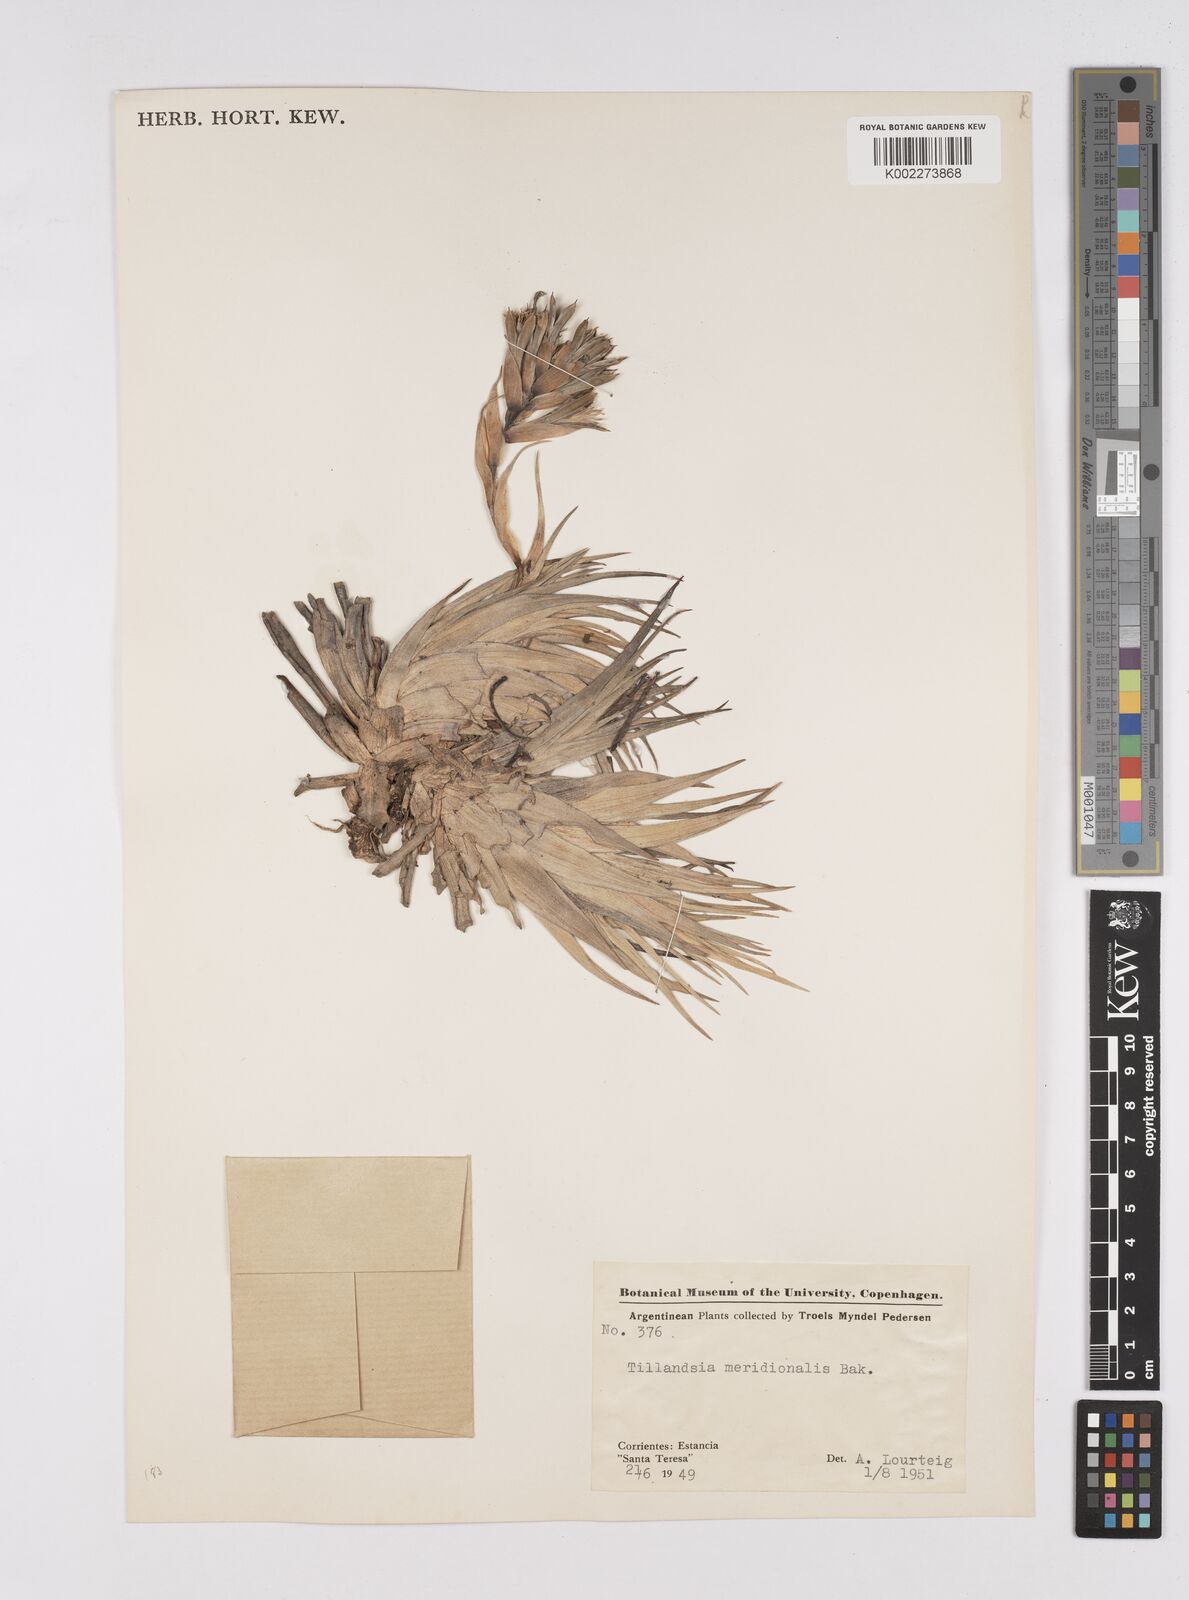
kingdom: Plantae
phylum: Tracheophyta
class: Liliopsida
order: Poales
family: Bromeliaceae
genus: Tillandsia
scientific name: Tillandsia recurvifolia
